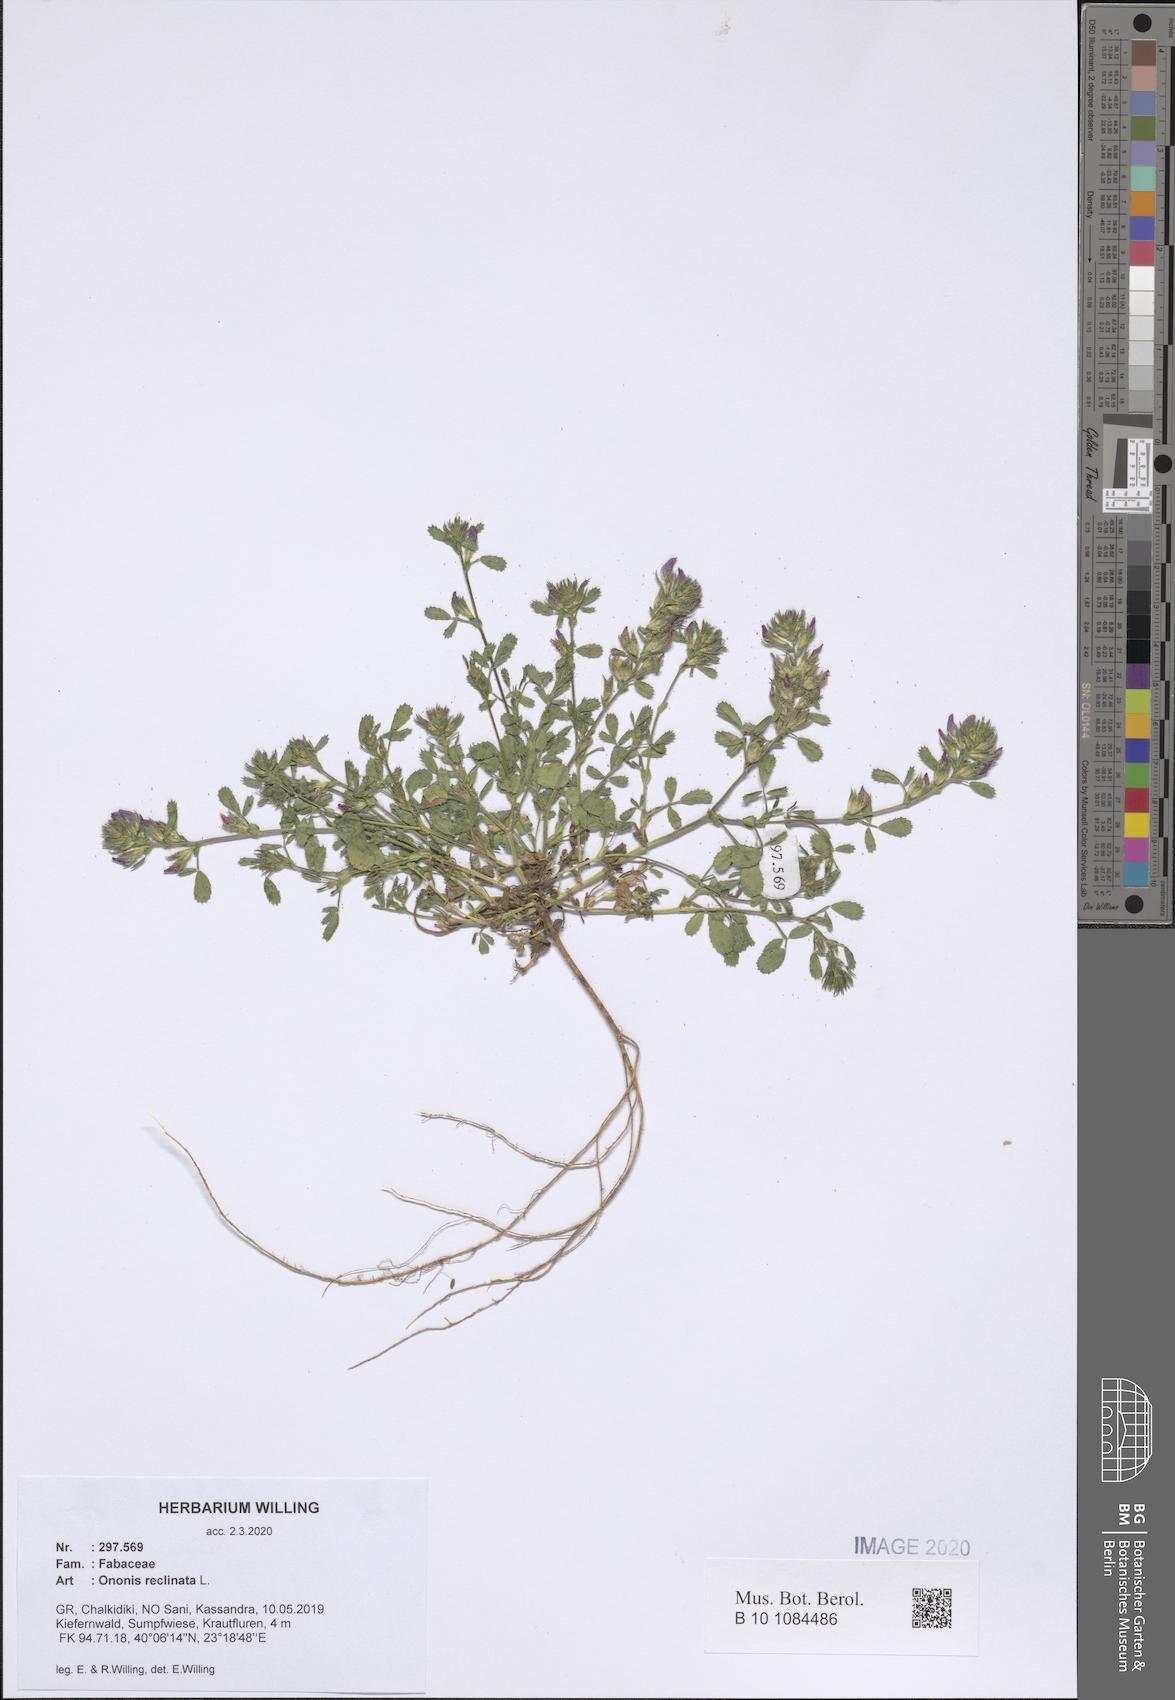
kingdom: Plantae
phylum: Tracheophyta
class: Magnoliopsida
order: Fabales
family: Fabaceae
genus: Ononis
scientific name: Ononis reclinata
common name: Small restharrow
